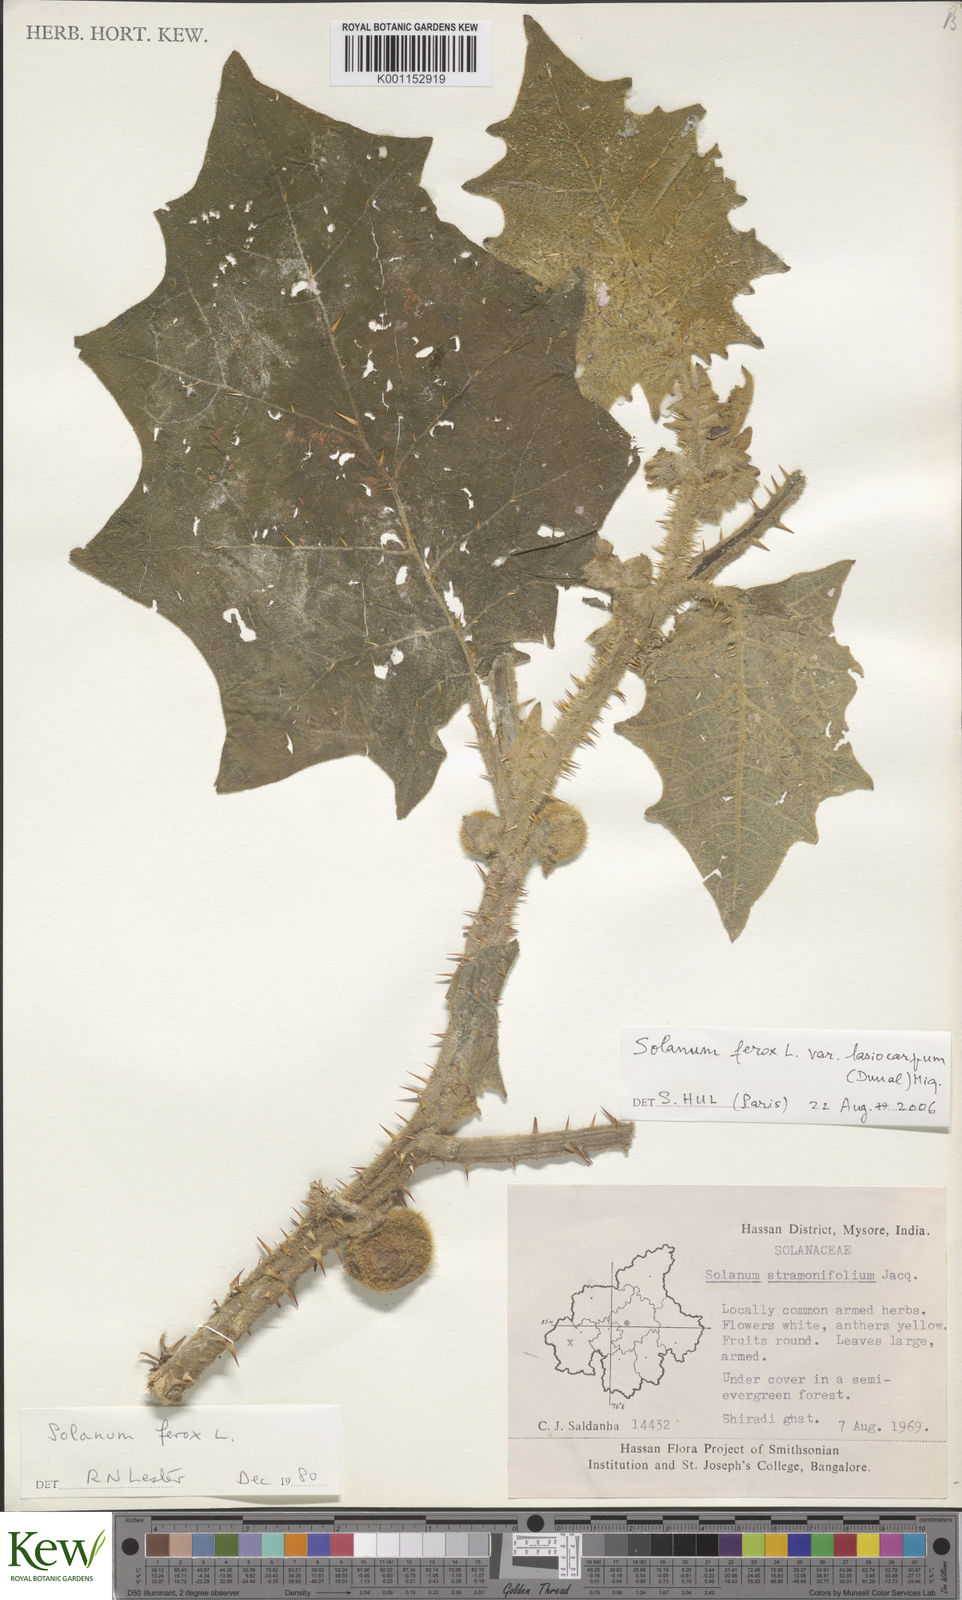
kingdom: Plantae
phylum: Tracheophyta
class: Magnoliopsida
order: Solanales
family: Solanaceae
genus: Solanum
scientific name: Solanum
